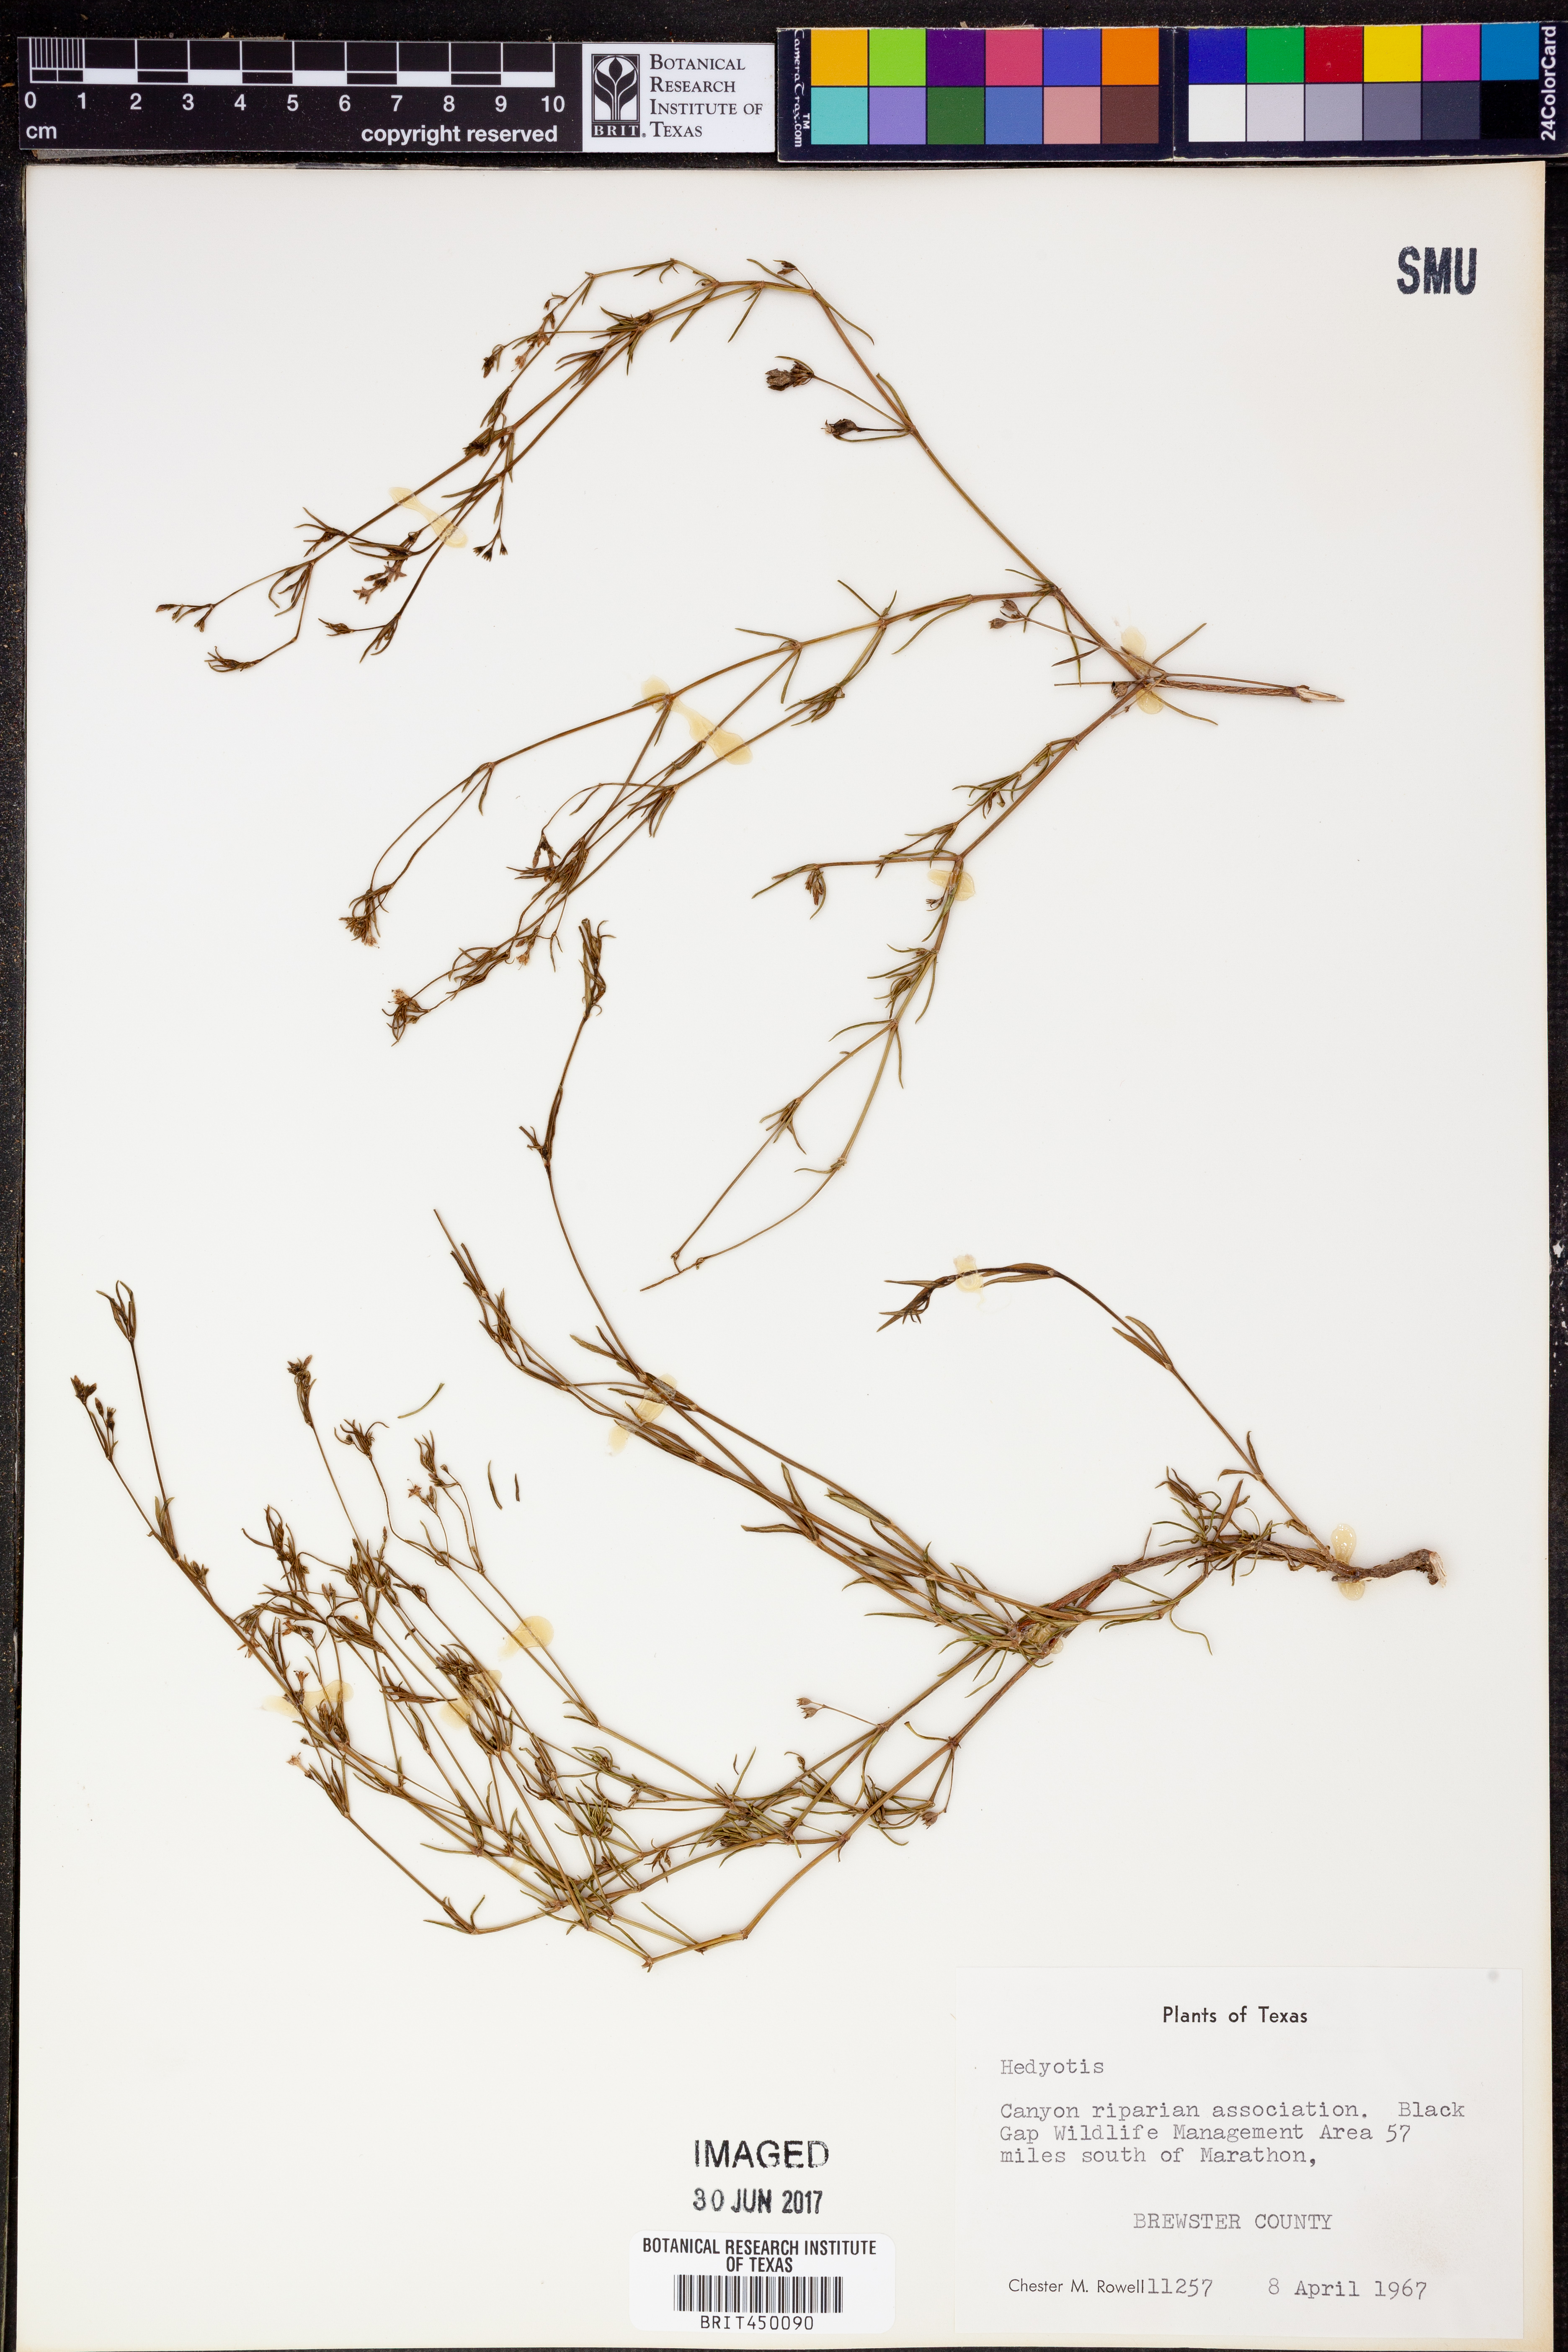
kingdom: Plantae
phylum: Tracheophyta
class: Magnoliopsida
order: Gentianales
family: Rubiaceae
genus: Hedyotis
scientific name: Hedyotis
